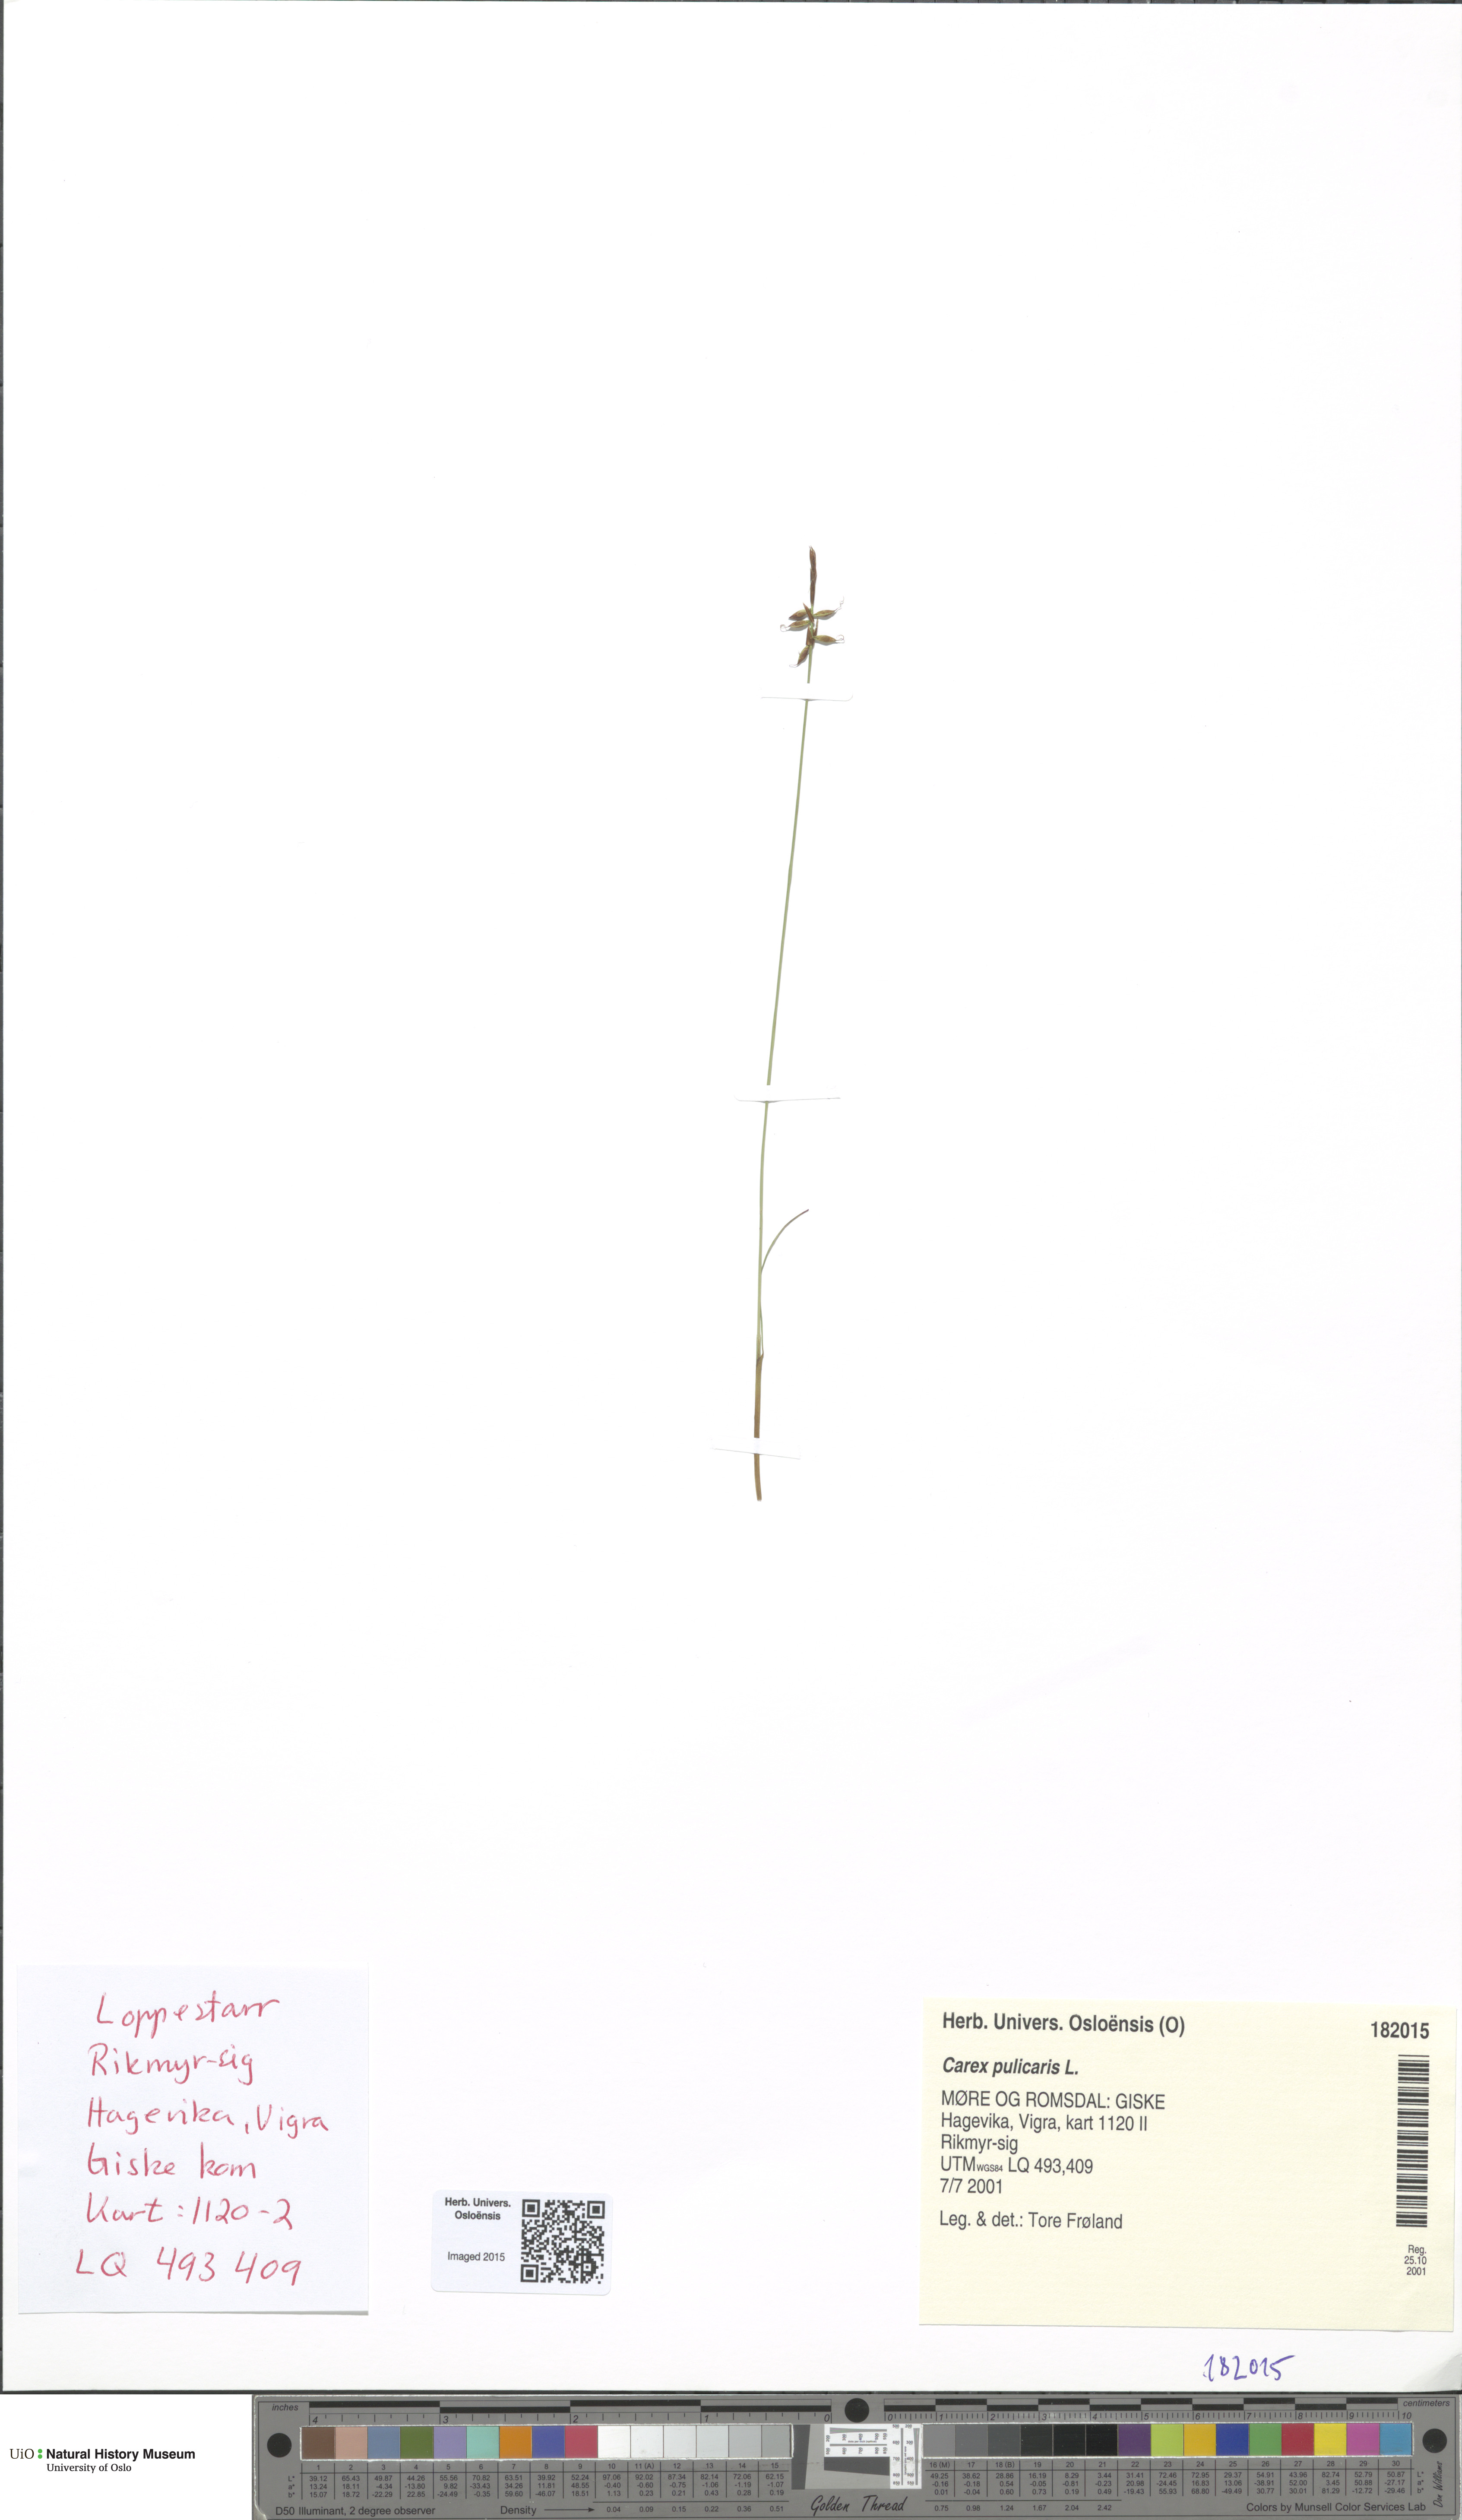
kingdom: Plantae
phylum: Tracheophyta
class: Liliopsida
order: Poales
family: Cyperaceae
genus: Carex
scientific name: Carex pulicaris
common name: Flea sedge
